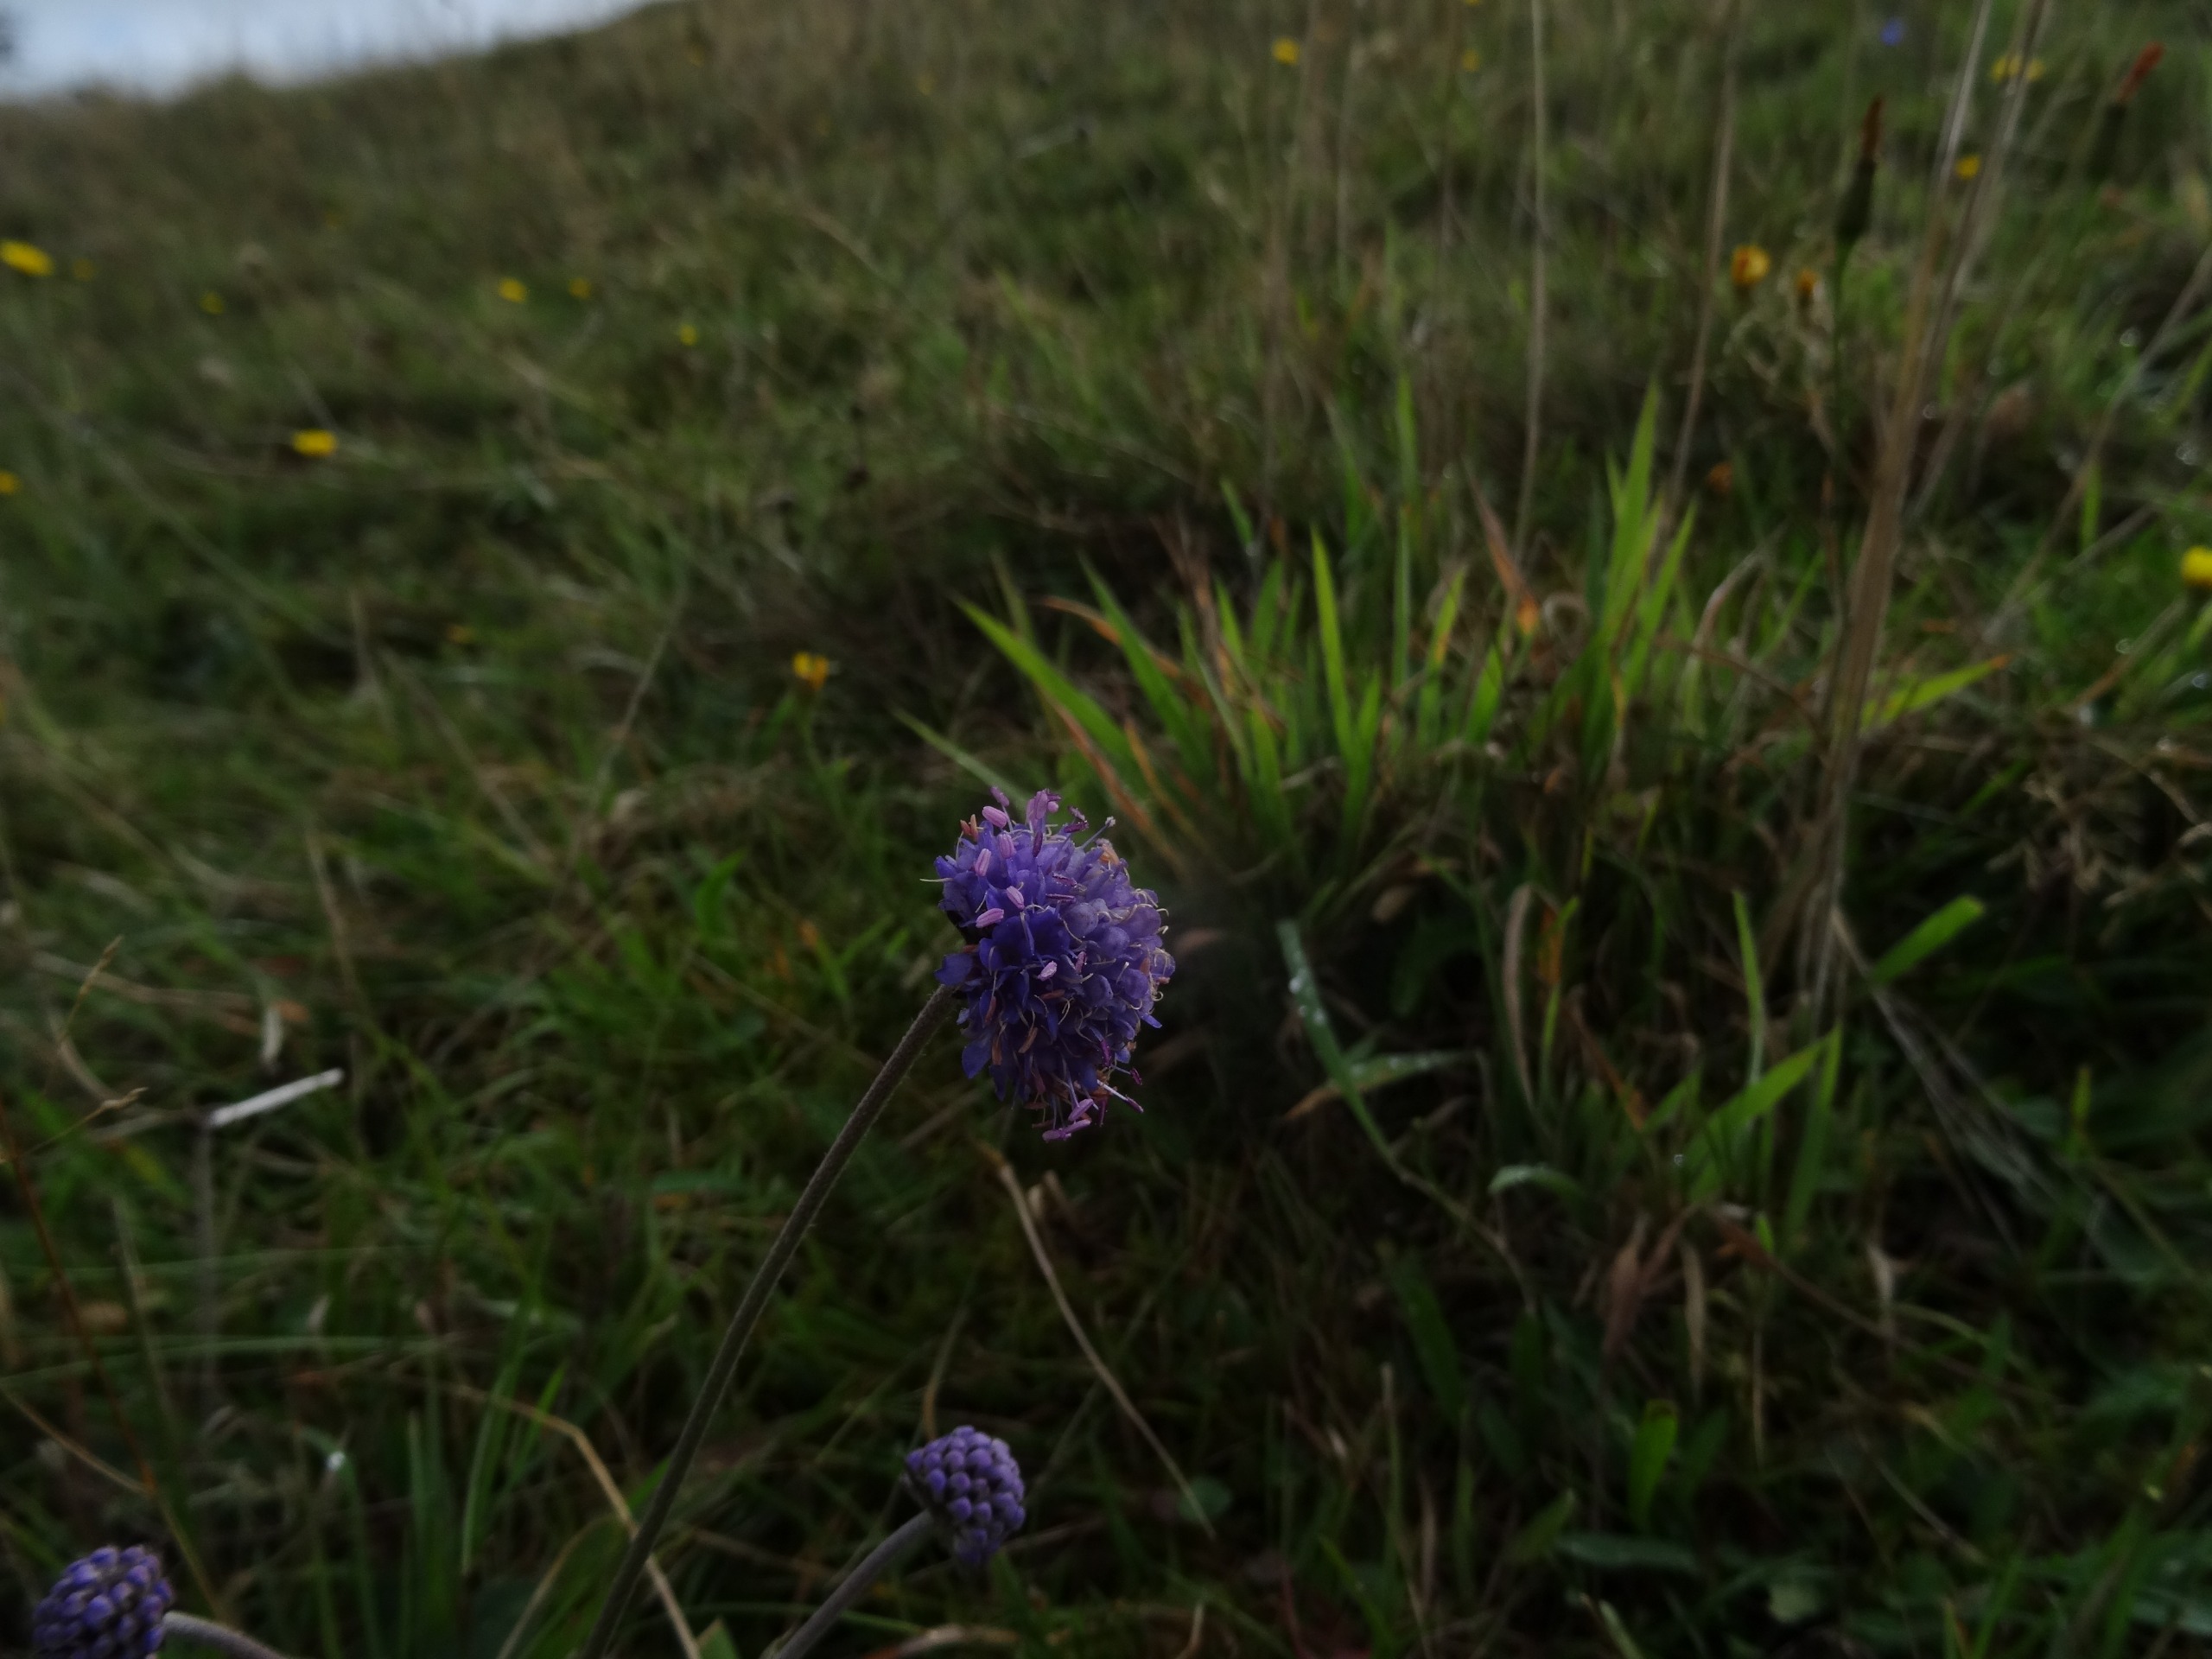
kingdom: Plantae
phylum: Tracheophyta
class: Magnoliopsida
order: Dipsacales
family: Caprifoliaceae
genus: Succisa
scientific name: Succisa pratensis
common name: Djævelsbid
